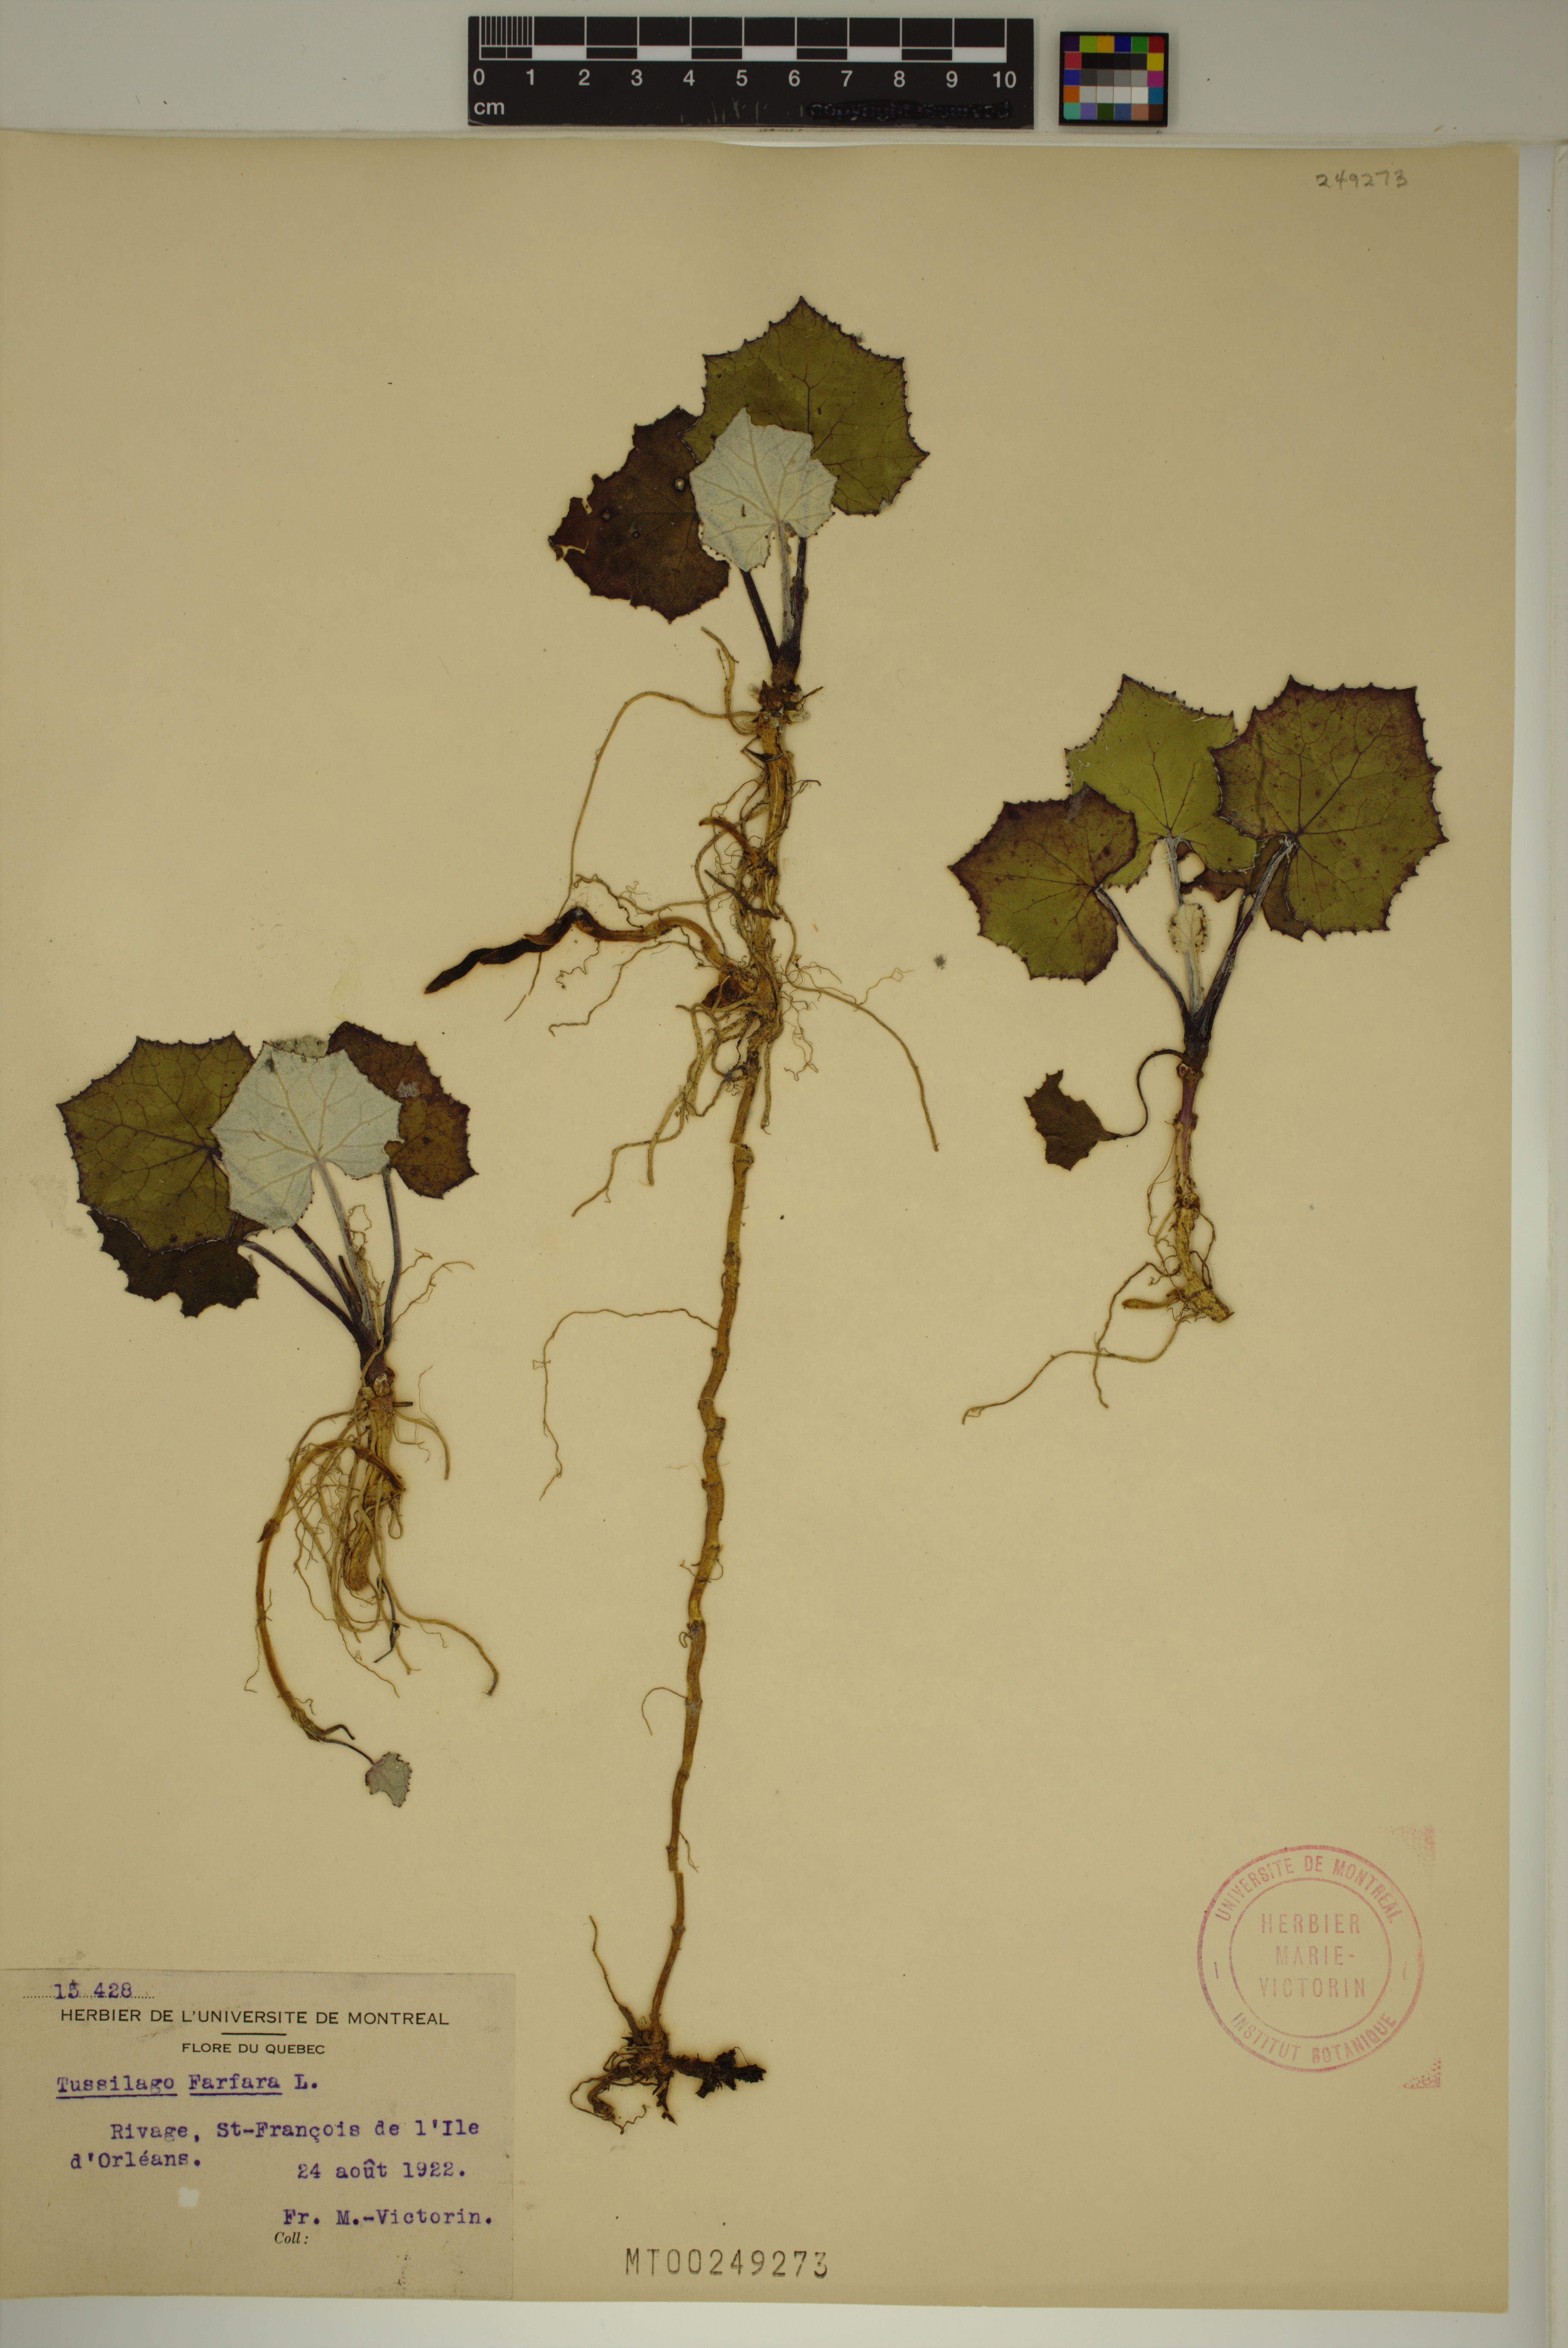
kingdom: Plantae
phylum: Tracheophyta
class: Magnoliopsida
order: Asterales
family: Asteraceae
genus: Tussilago
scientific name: Tussilago farfara
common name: Coltsfoot
